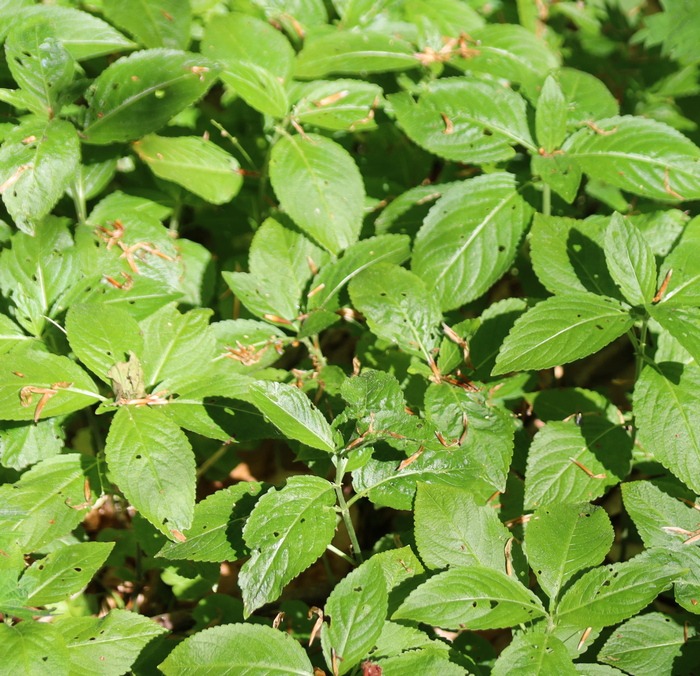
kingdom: Plantae
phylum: Tracheophyta
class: Magnoliopsida
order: Malpighiales
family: Euphorbiaceae
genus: Mercurialis
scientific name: Mercurialis perennis
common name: Almindelig bingelurt
